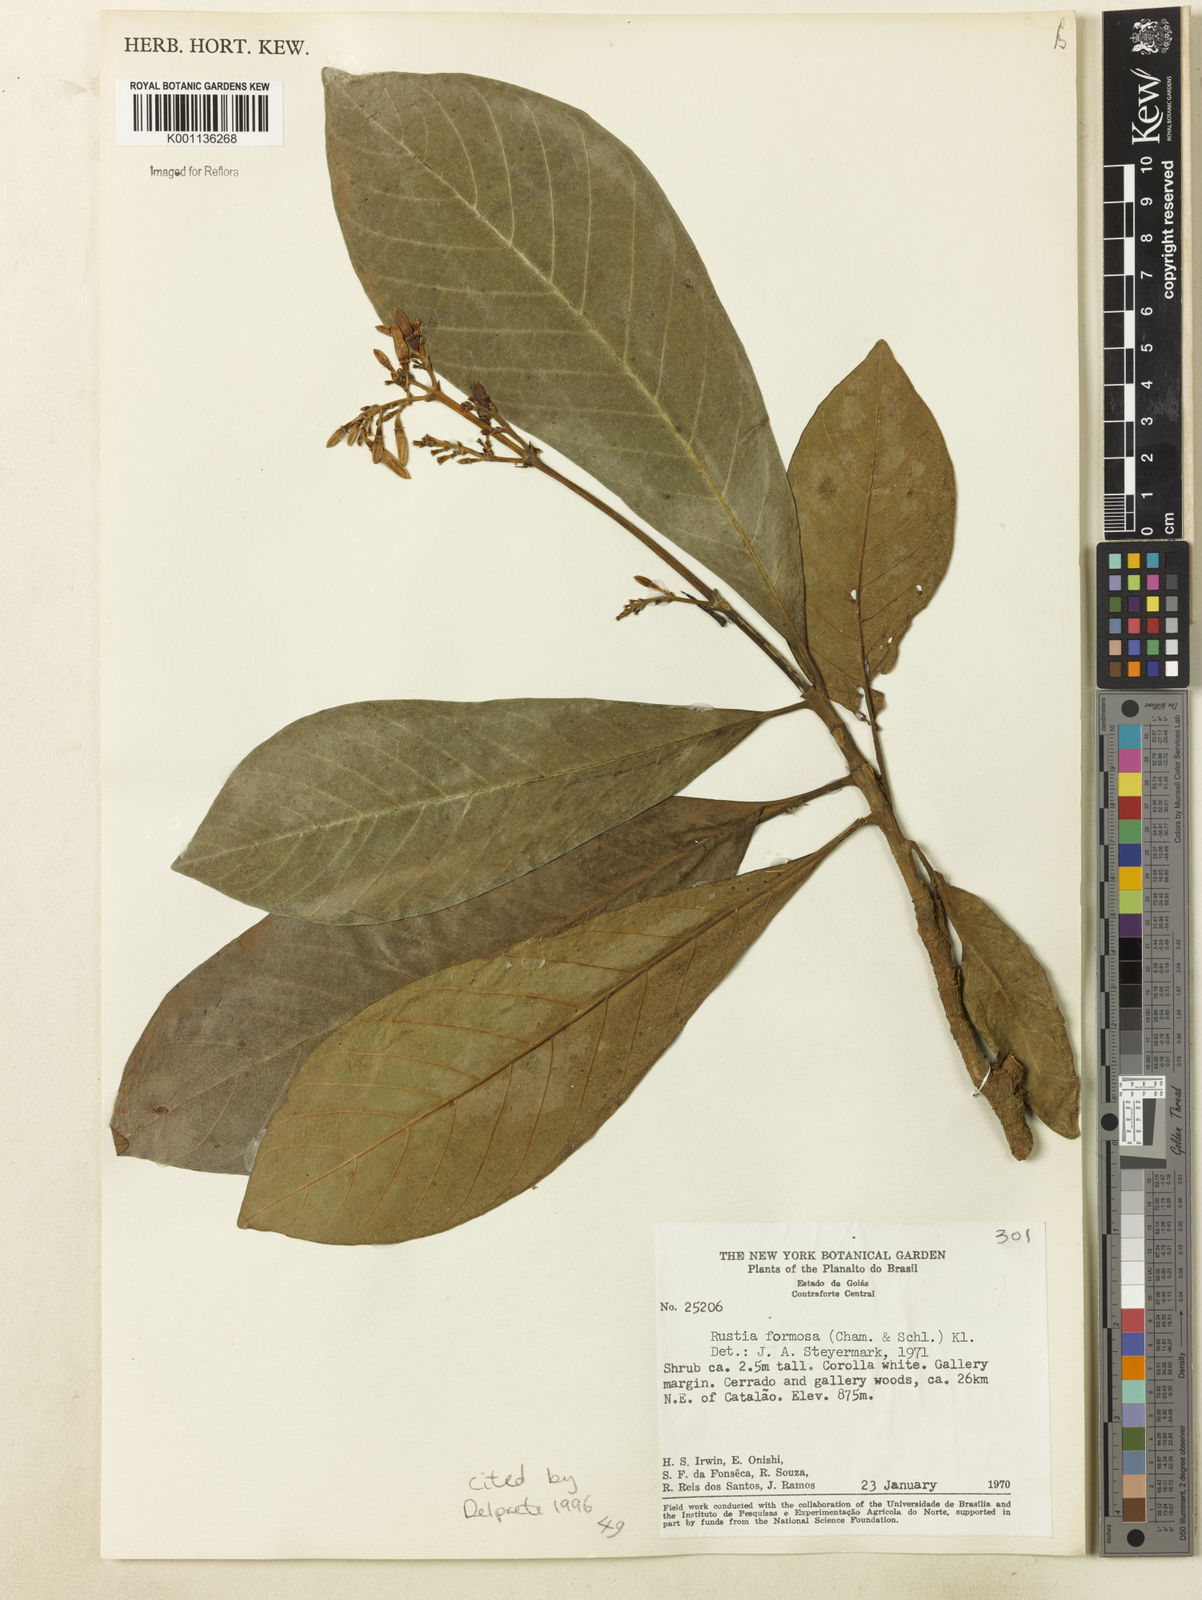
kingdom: Plantae
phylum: Tracheophyta
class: Magnoliopsida
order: Gentianales
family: Rubiaceae
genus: Rustia
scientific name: Rustia formosa
